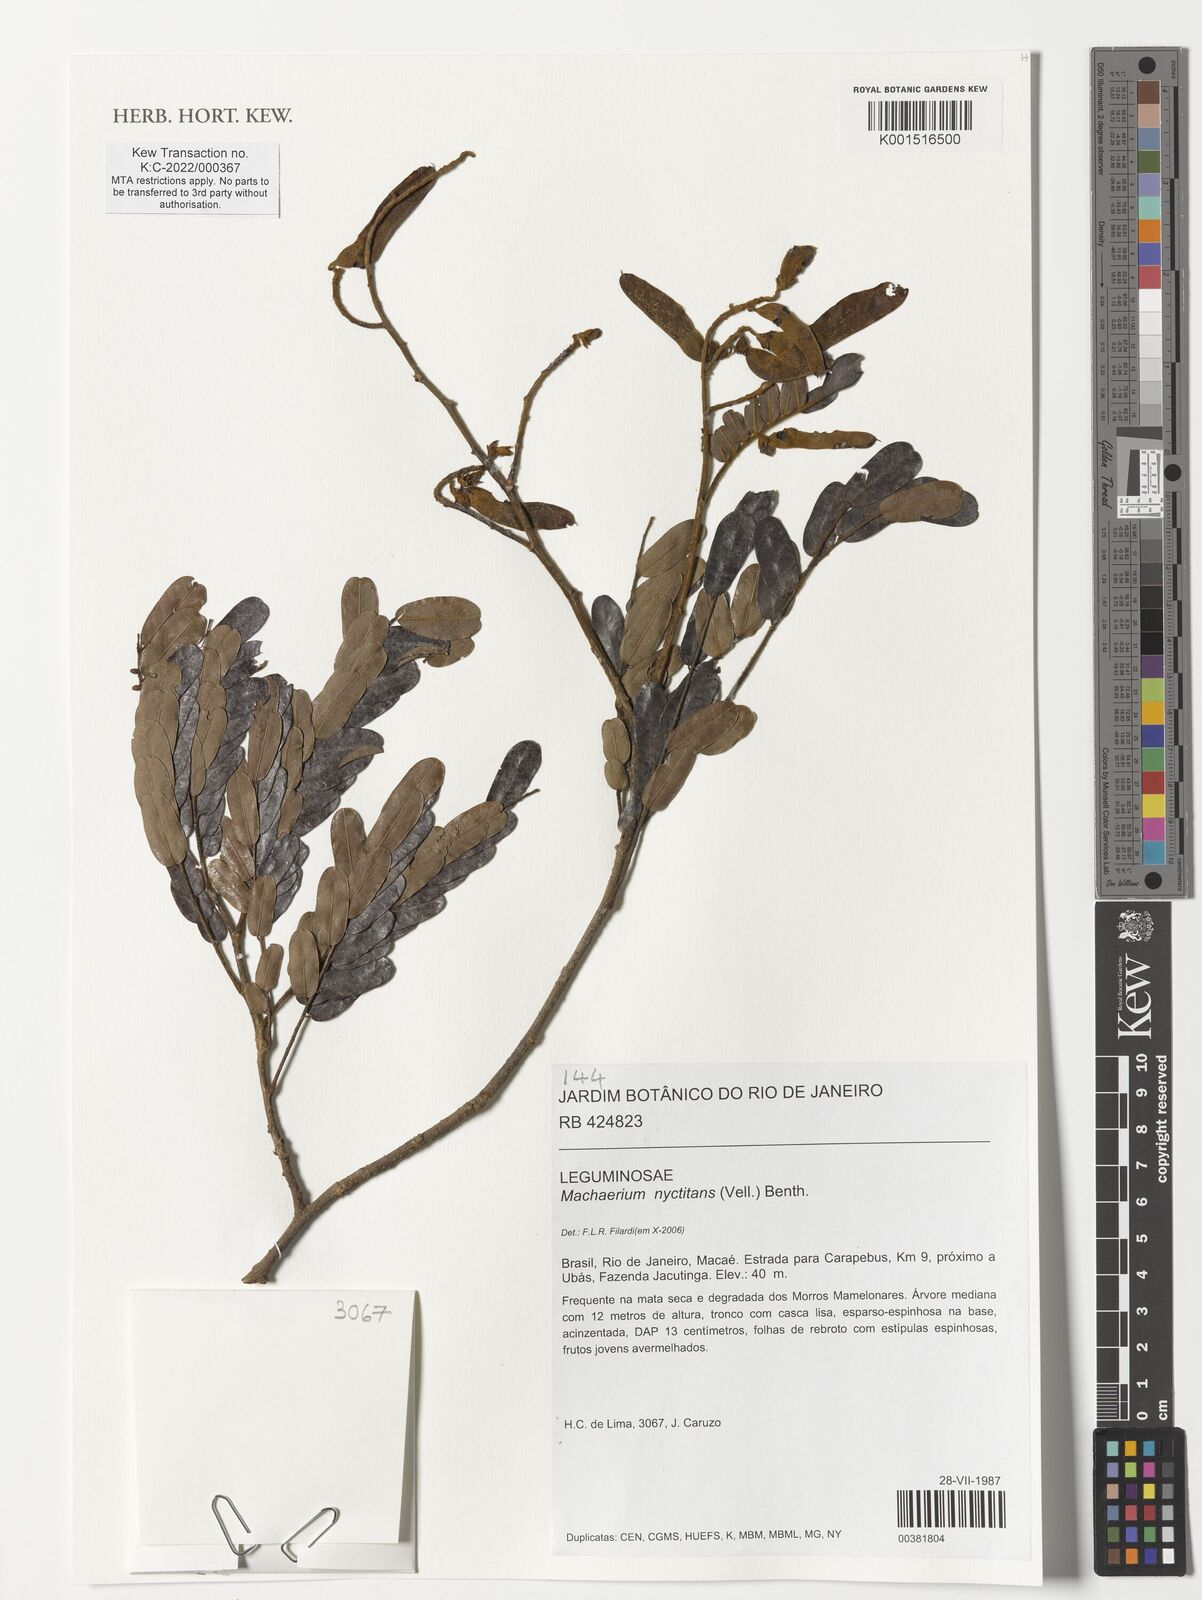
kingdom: Plantae
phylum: Tracheophyta
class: Magnoliopsida
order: Fabales
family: Fabaceae
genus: Machaerium
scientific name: Machaerium nyctitans
